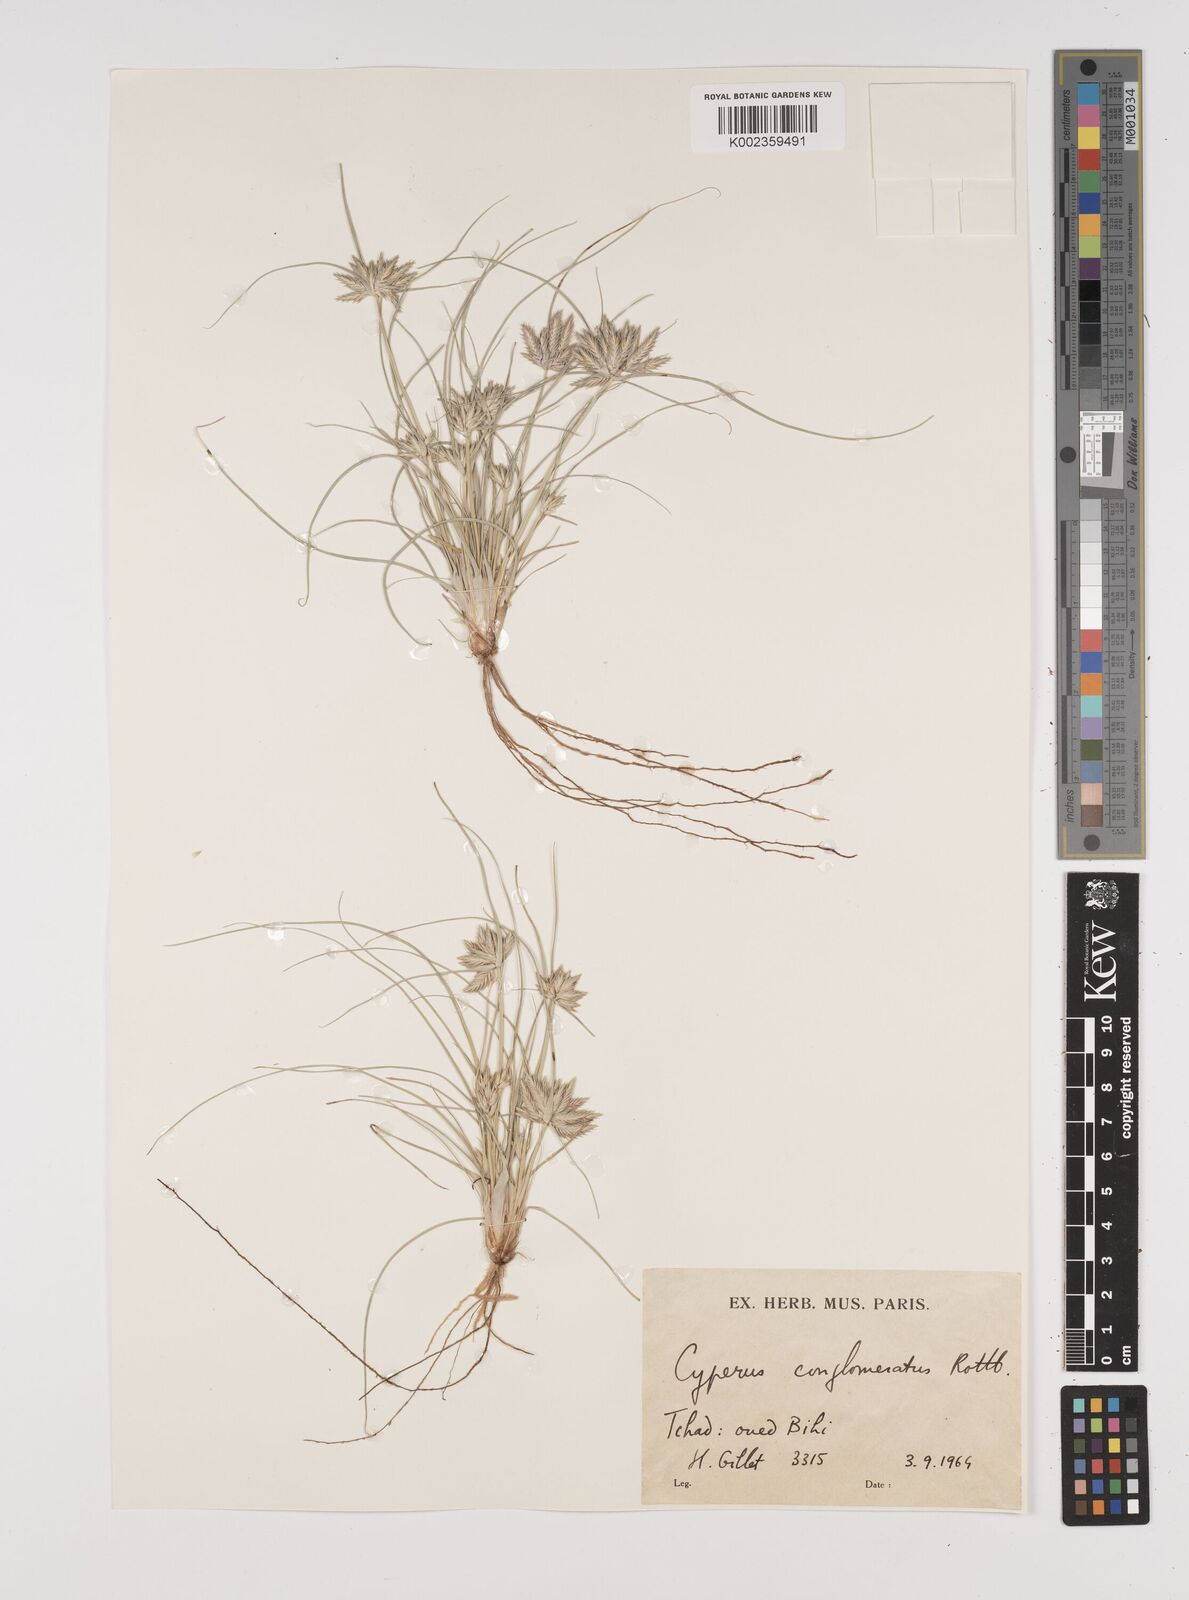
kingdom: Plantae
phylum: Tracheophyta
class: Liliopsida
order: Poales
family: Cyperaceae
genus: Cyperus
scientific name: Cyperus conglomeratus
